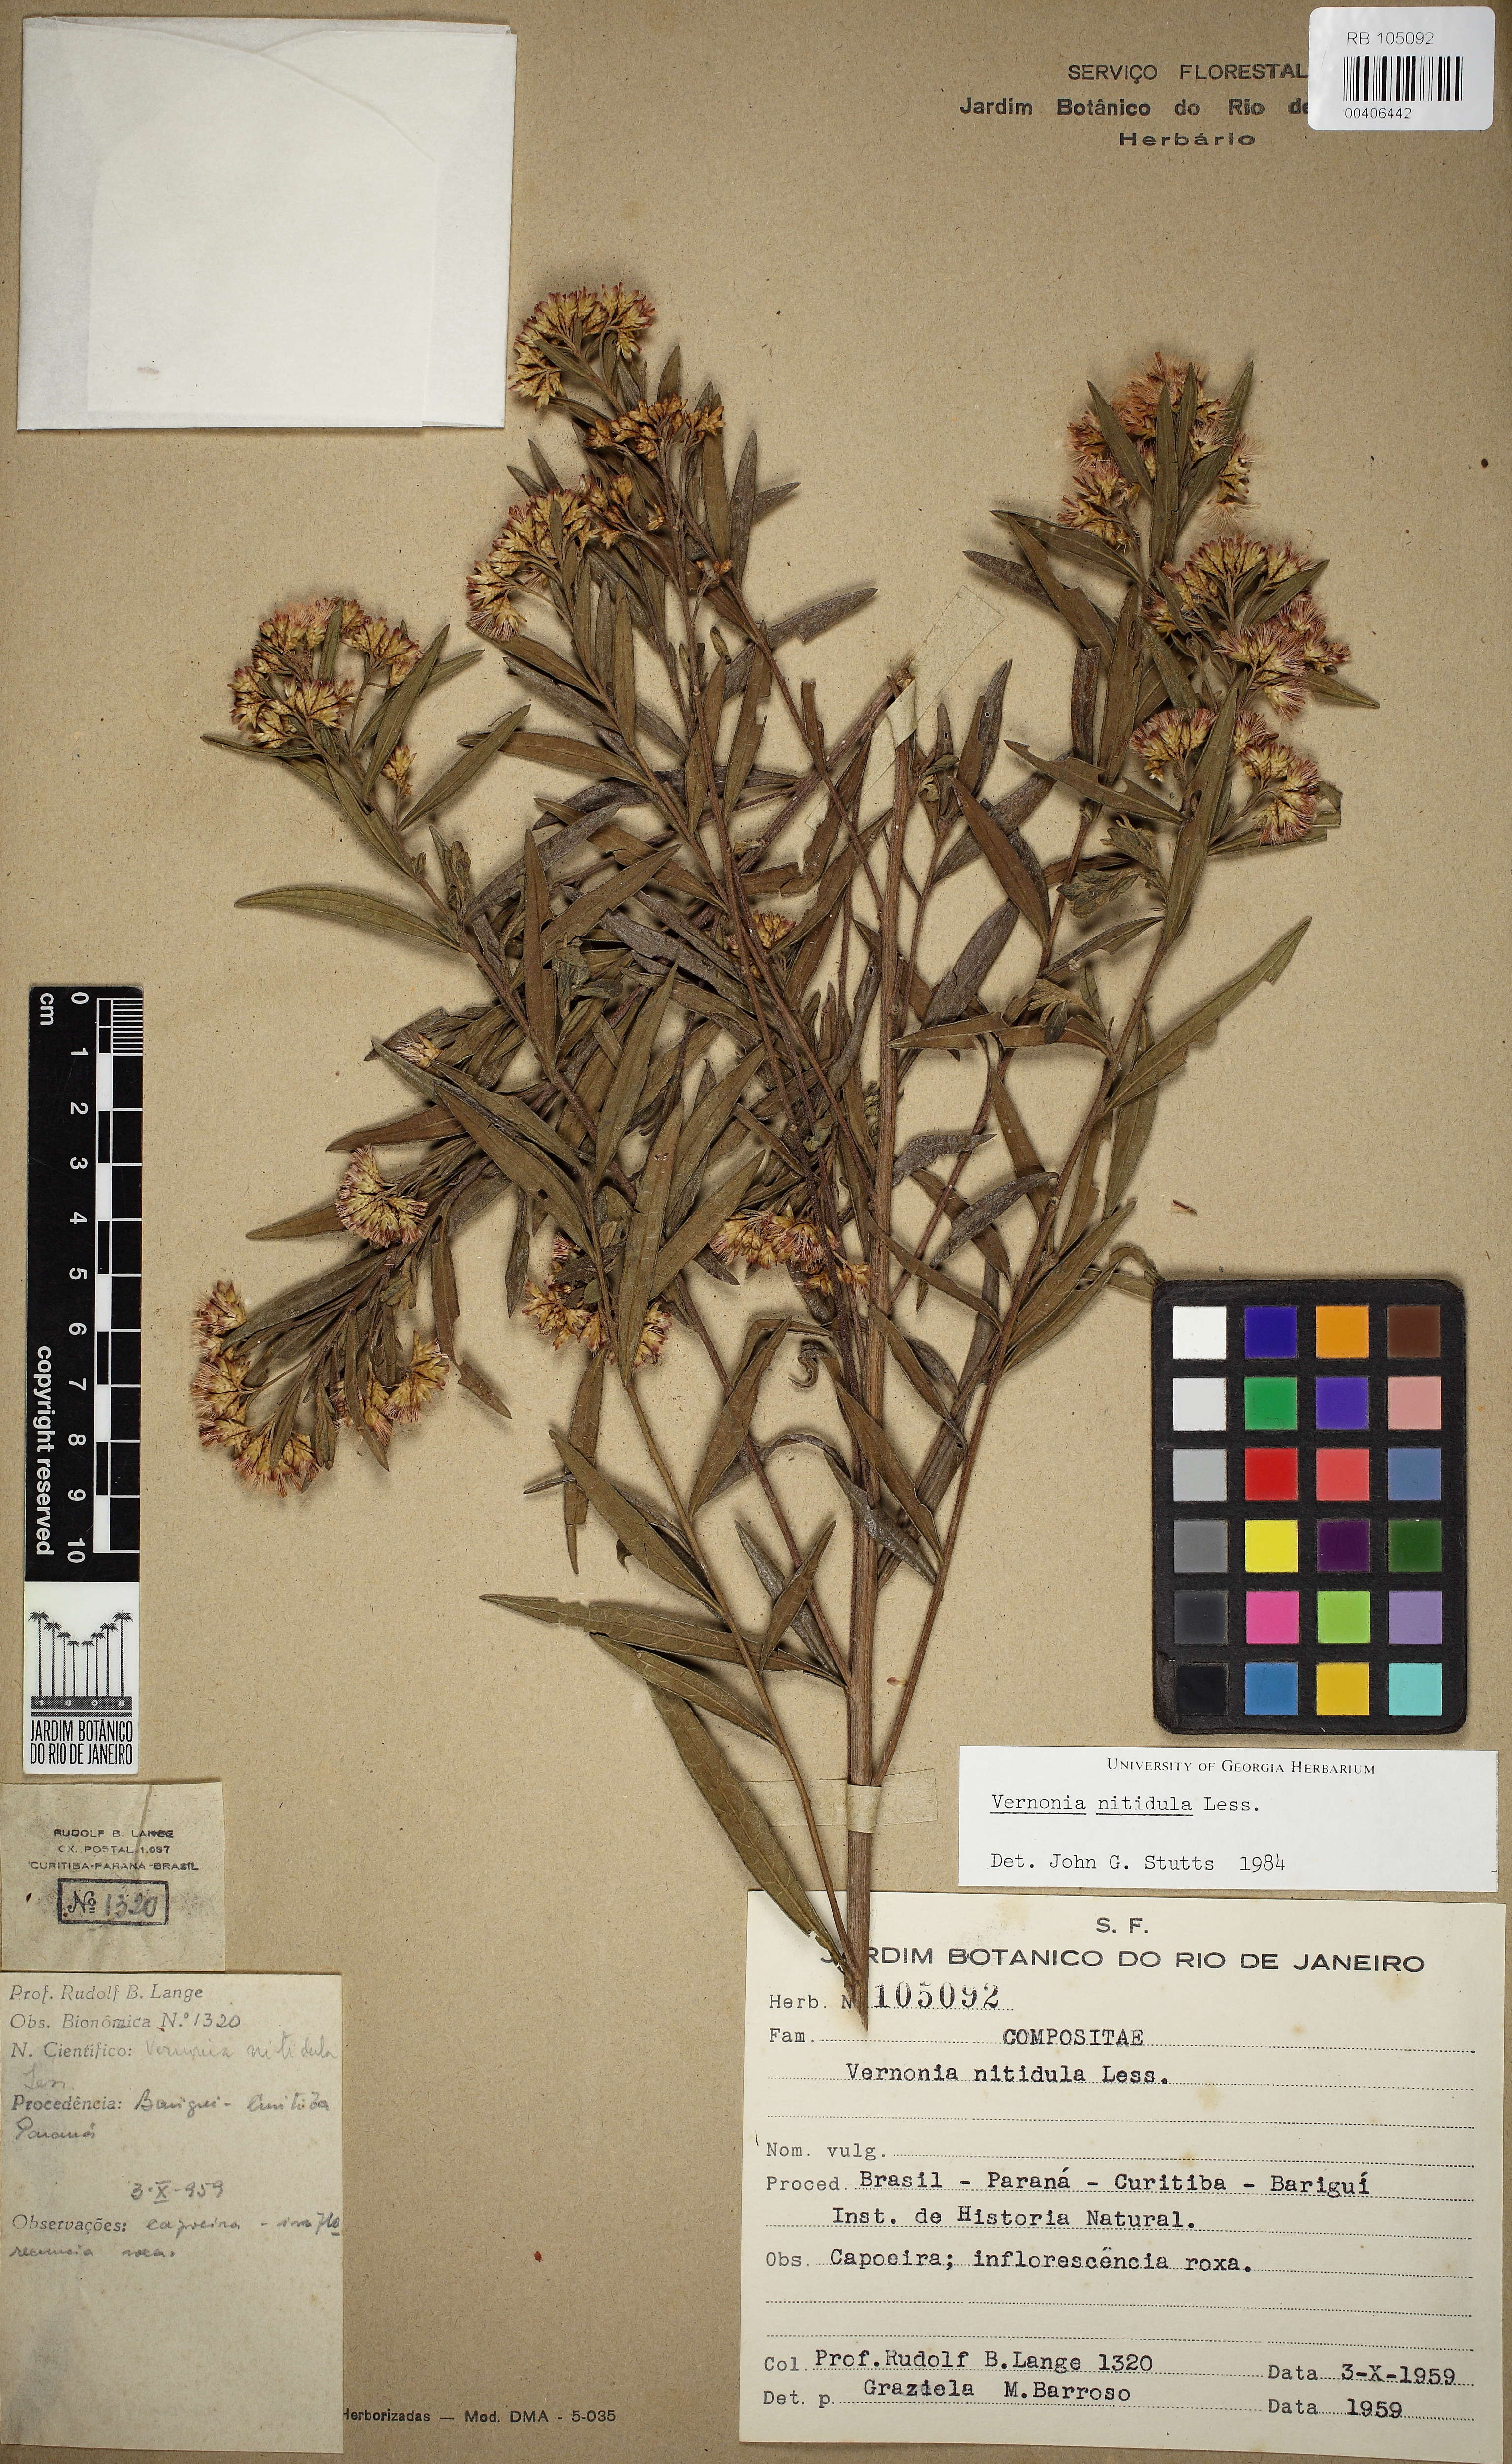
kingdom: Plantae
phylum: Tracheophyta
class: Magnoliopsida
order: Asterales
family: Asteraceae
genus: Vernonanthura
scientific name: Vernonanthura montevidensis
